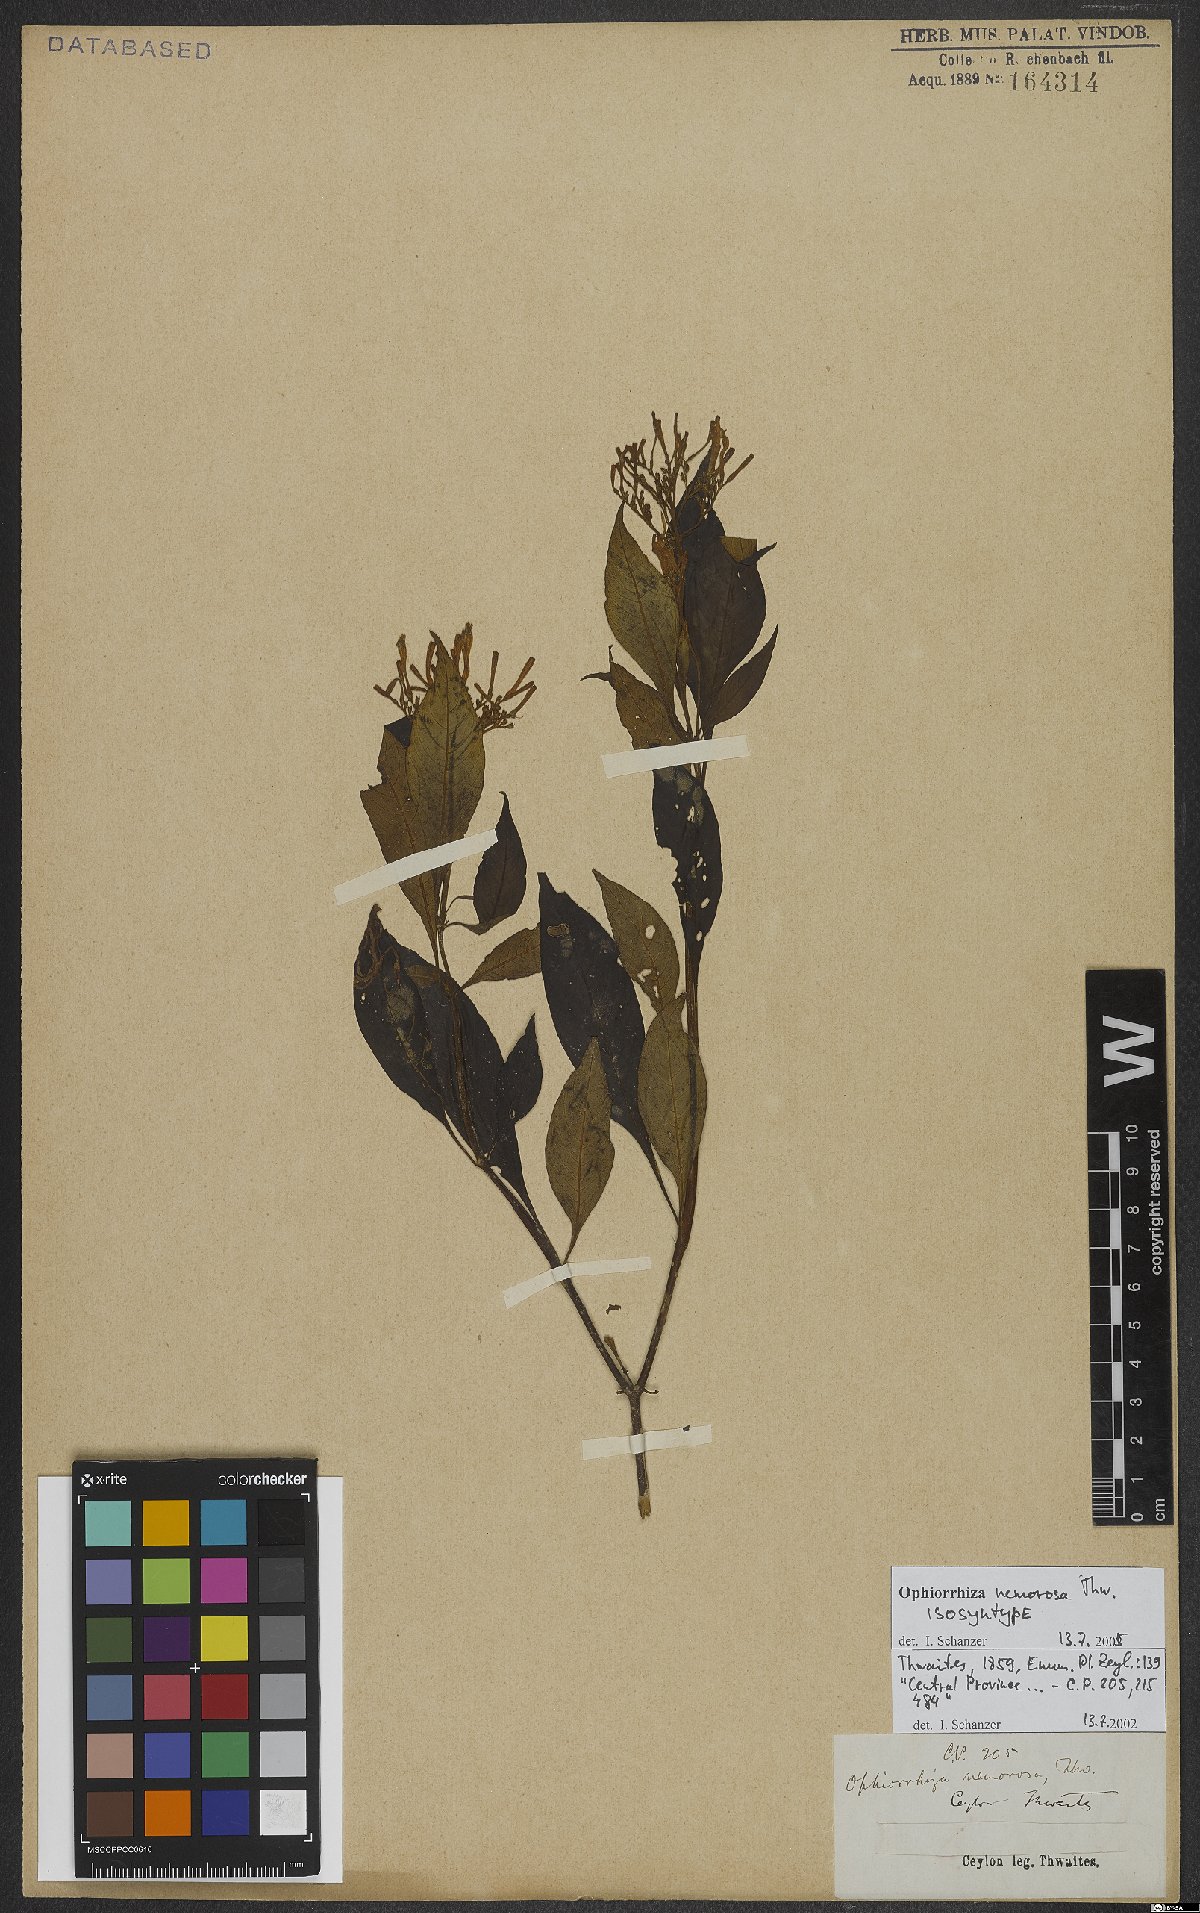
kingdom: Plantae
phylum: Tracheophyta
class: Magnoliopsida
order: Gentianales
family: Rubiaceae
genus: Ophiorrhiza
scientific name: Ophiorrhiza nemorosa
